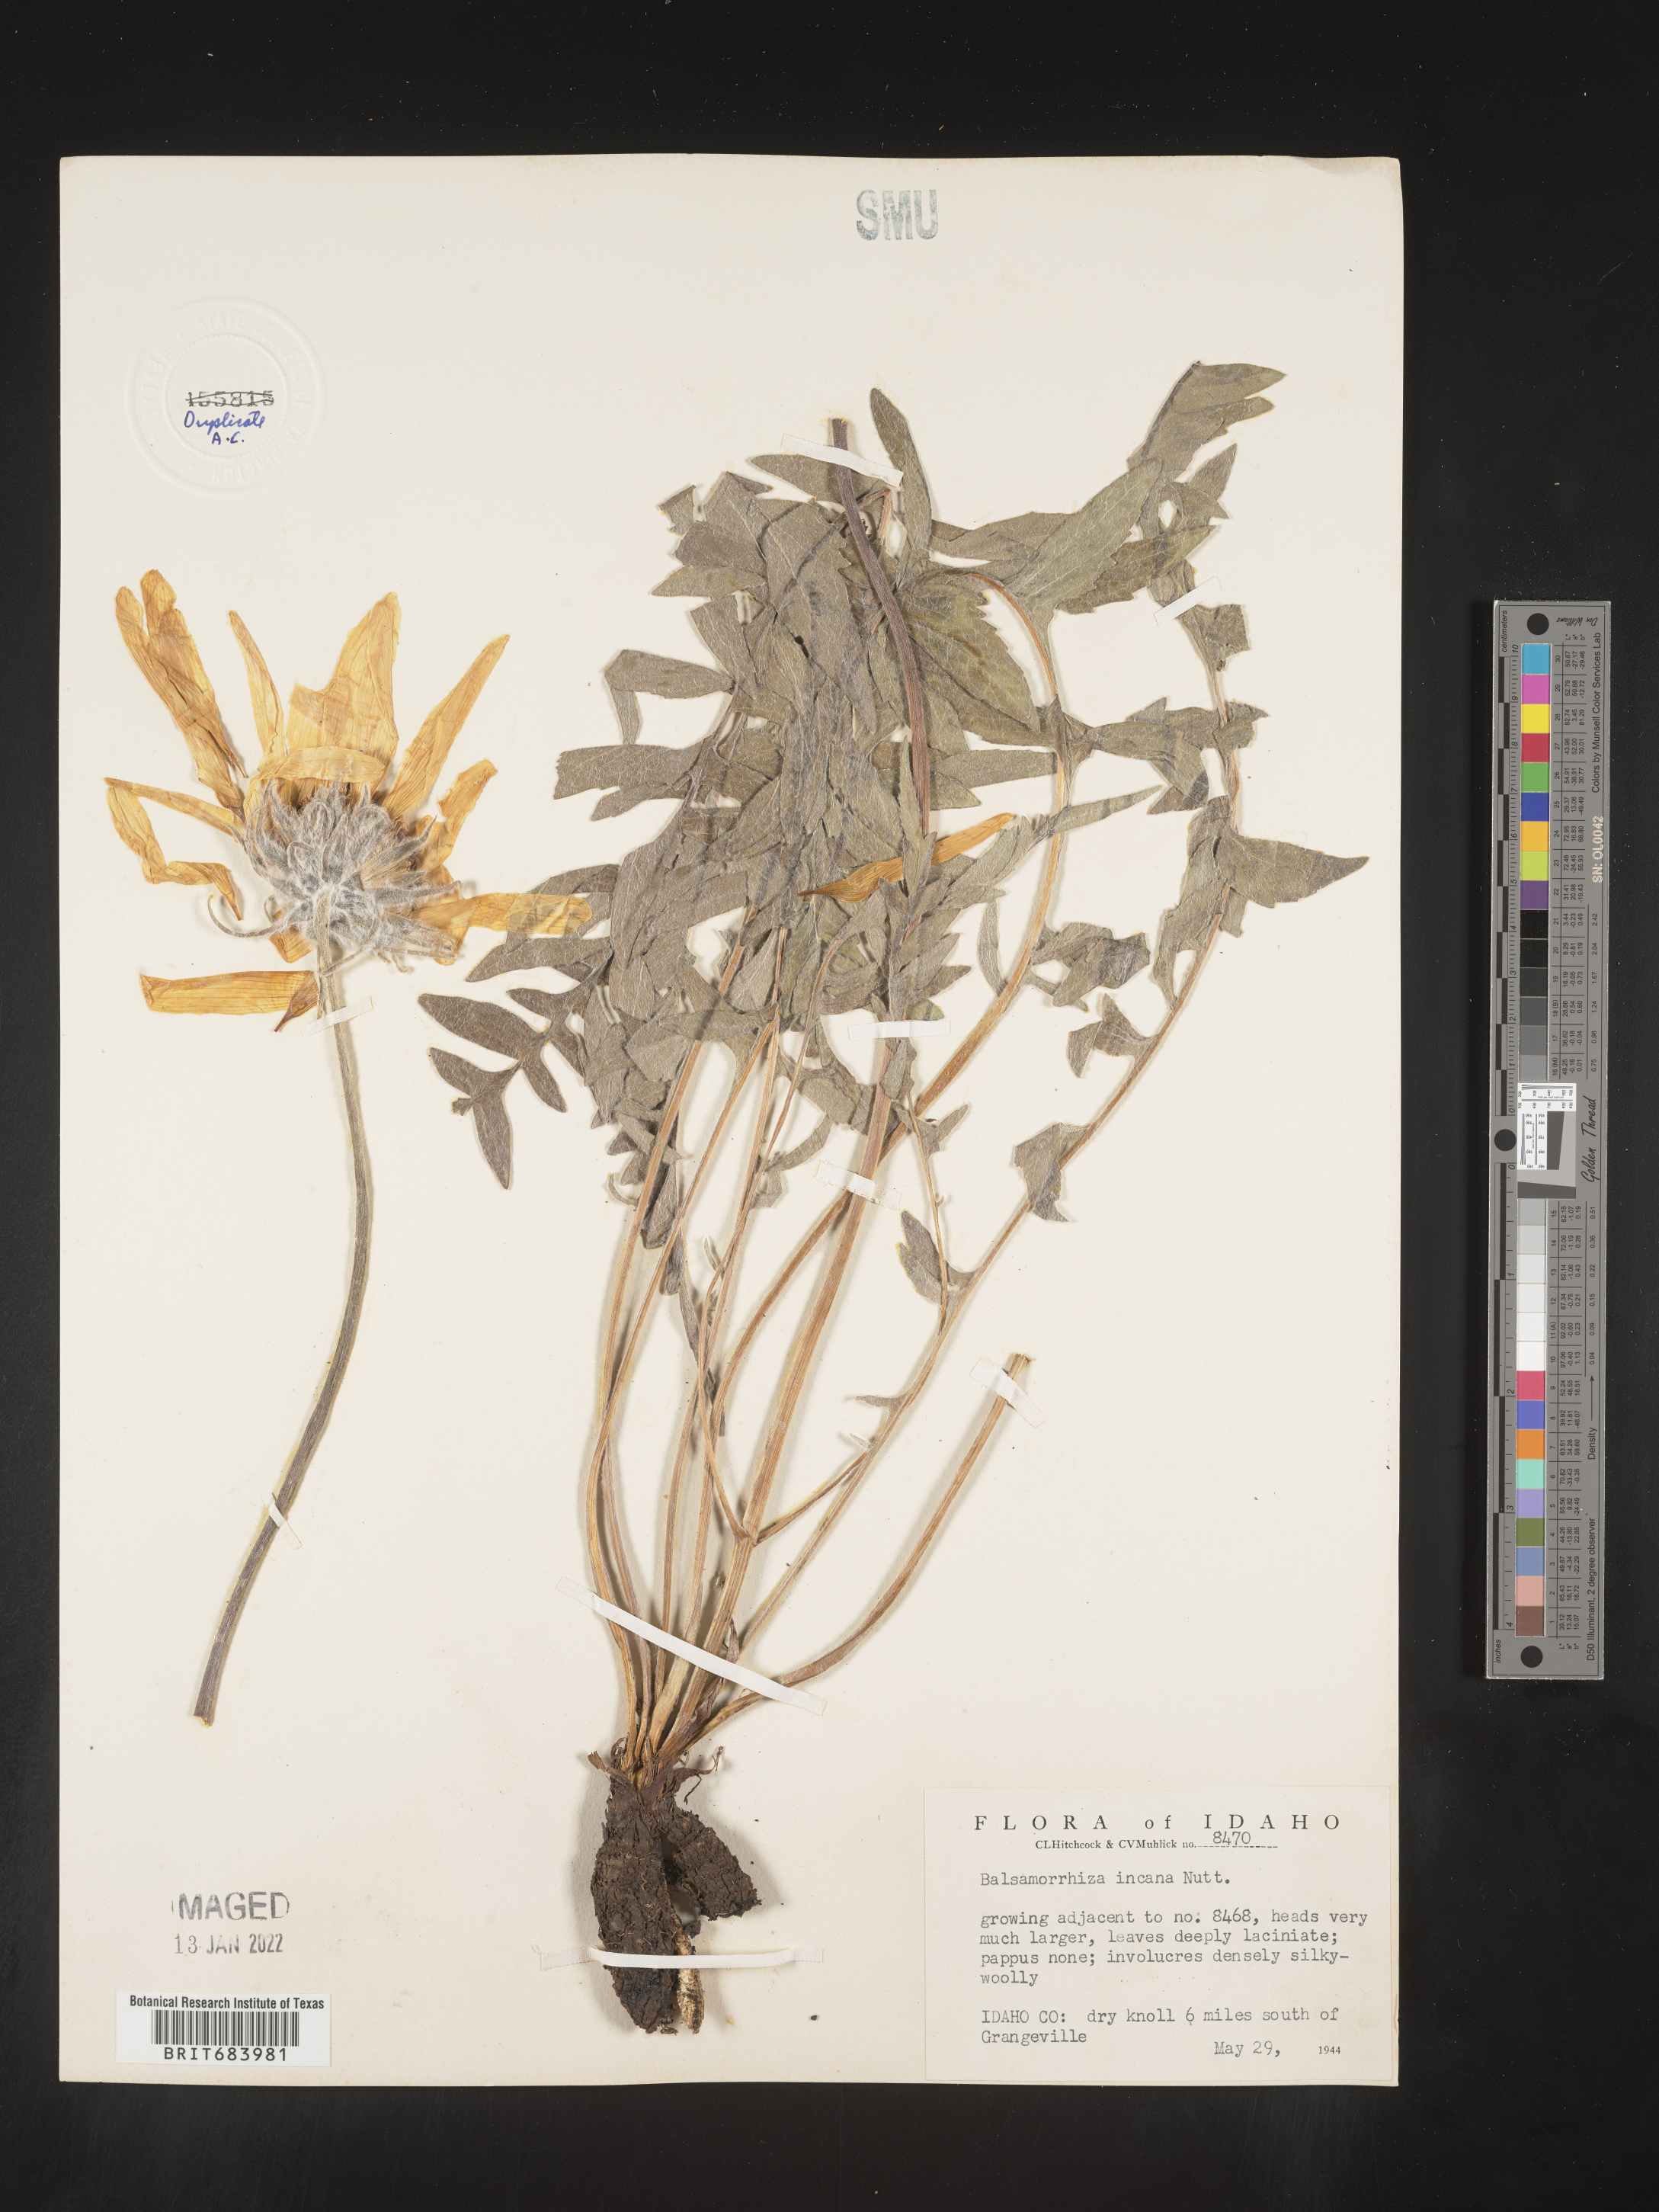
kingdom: Plantae
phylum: Tracheophyta
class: Magnoliopsida
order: Asterales
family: Asteraceae
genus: Balsamorhiza
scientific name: Balsamorhiza
